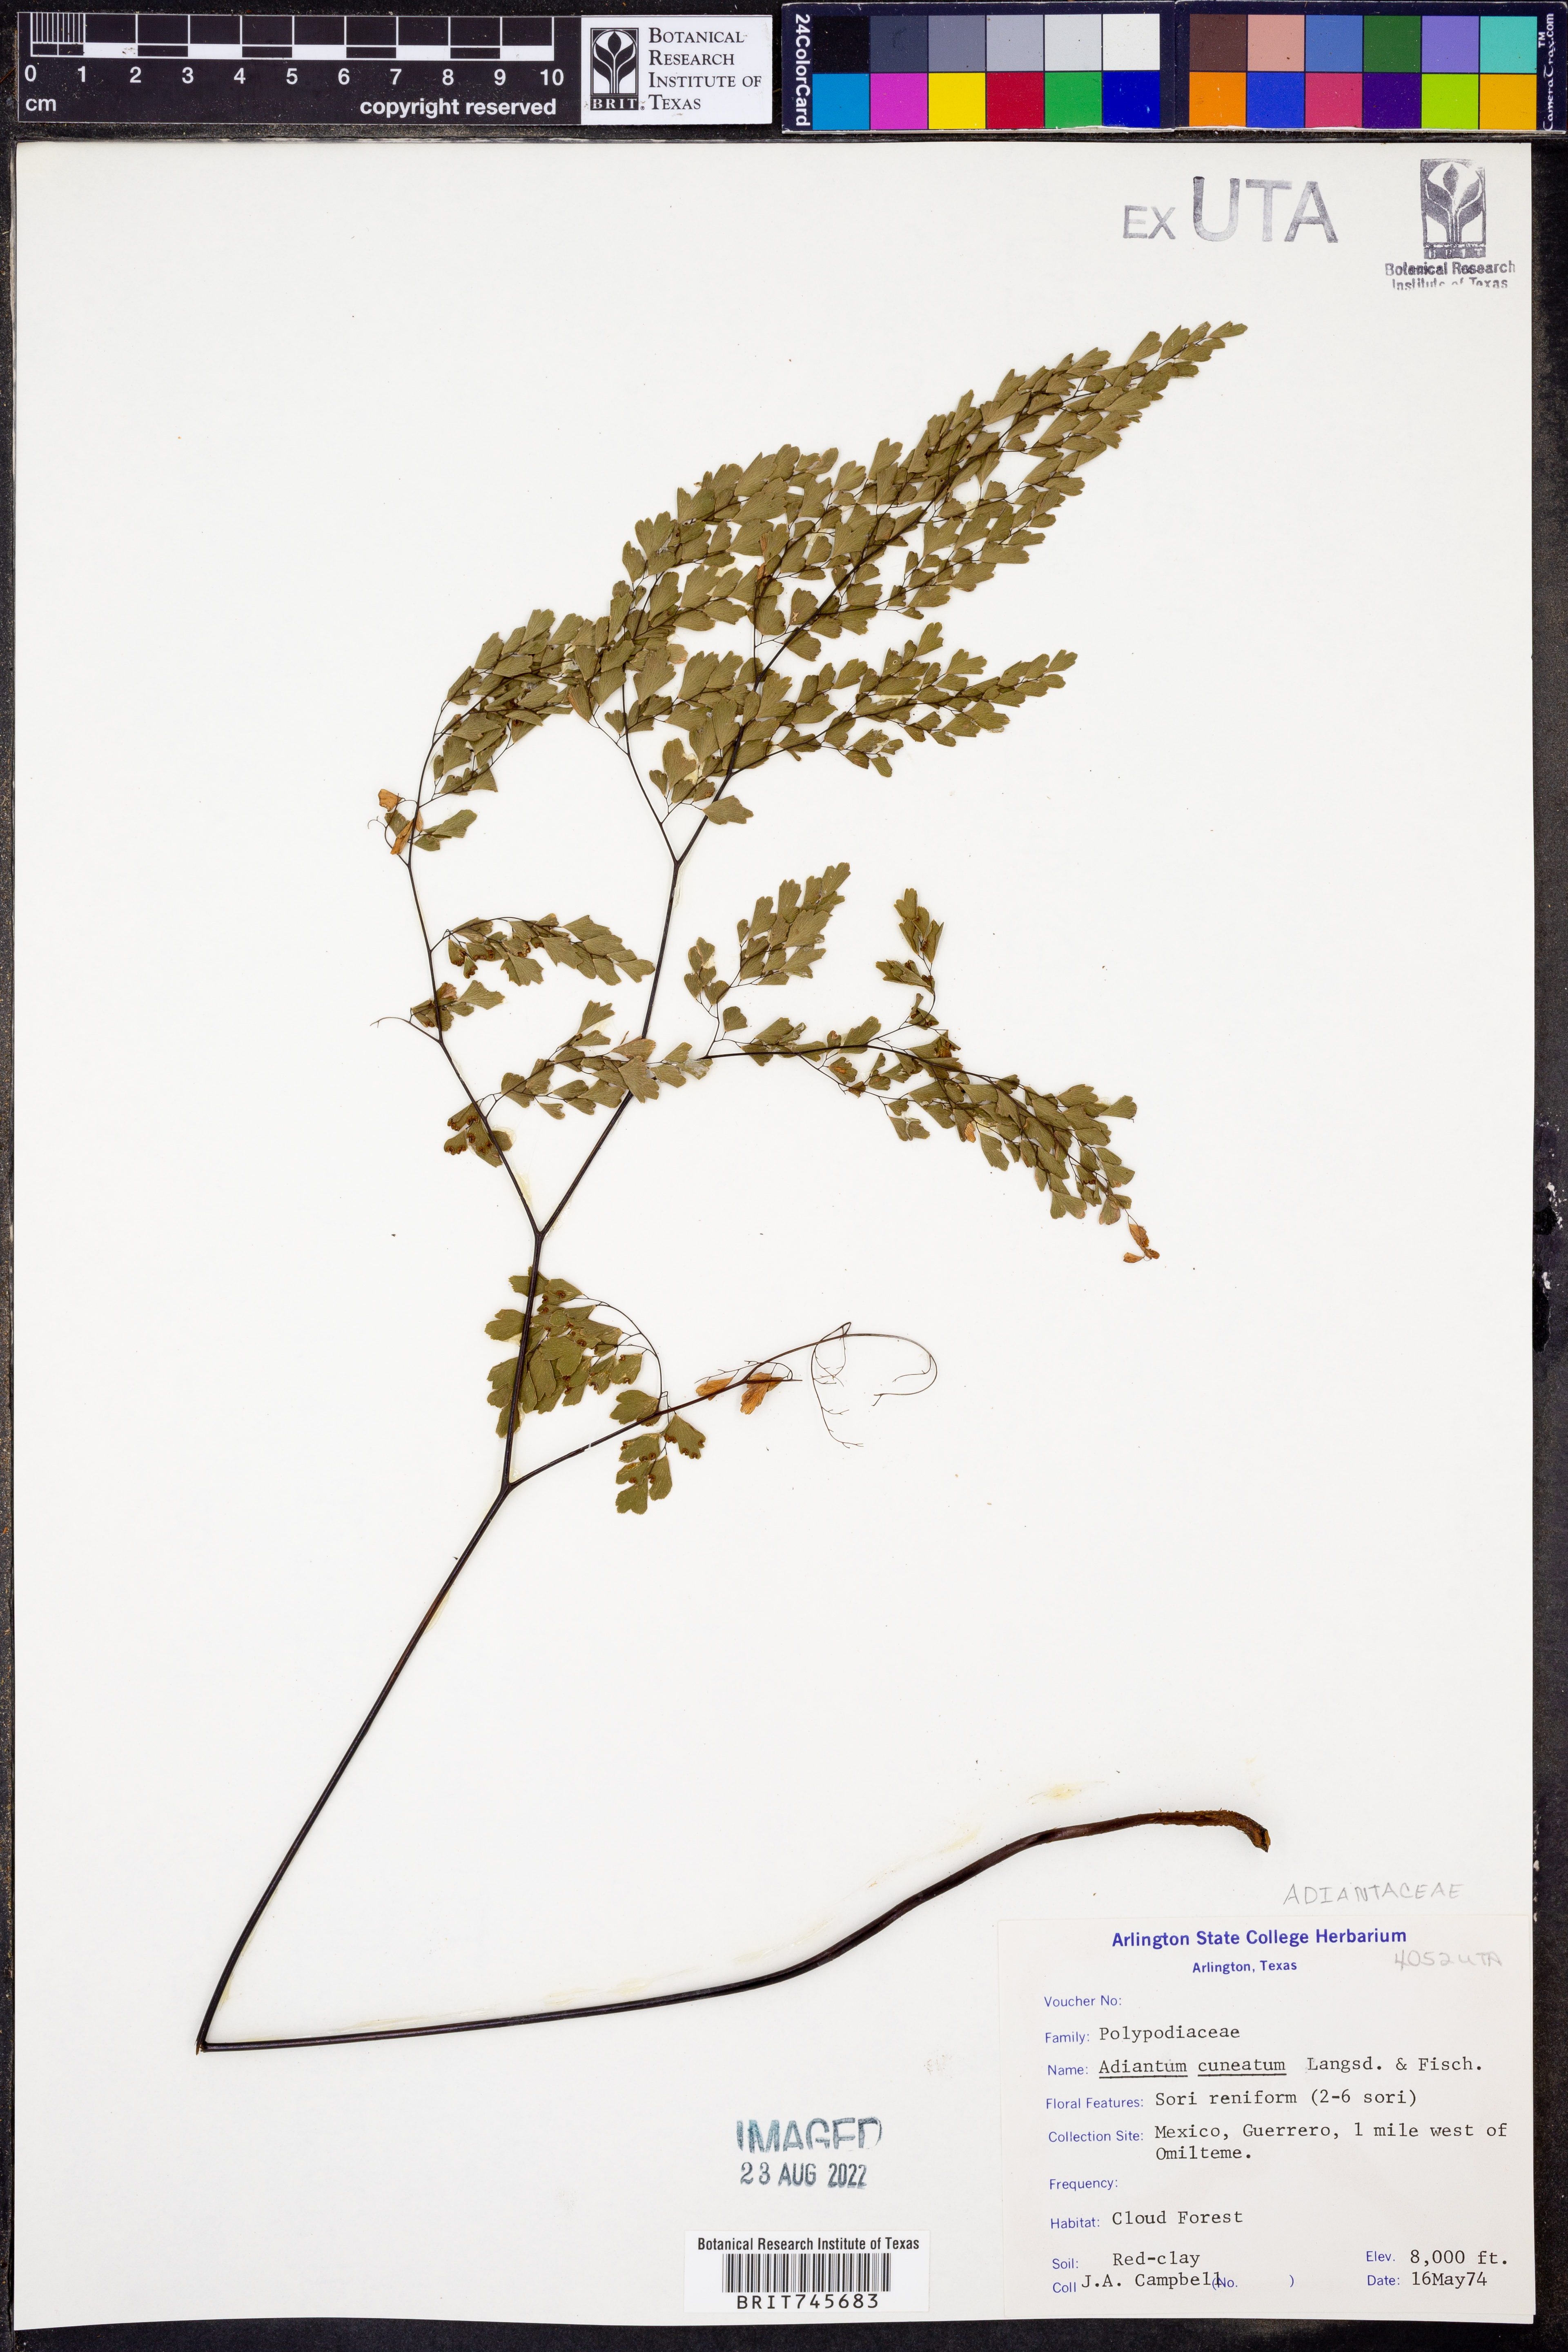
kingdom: Plantae
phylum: Tracheophyta
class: Polypodiopsida
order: Polypodiales
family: Pteridaceae
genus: Adiantum
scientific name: Adiantum raddianum
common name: Delta maidenhair fern
